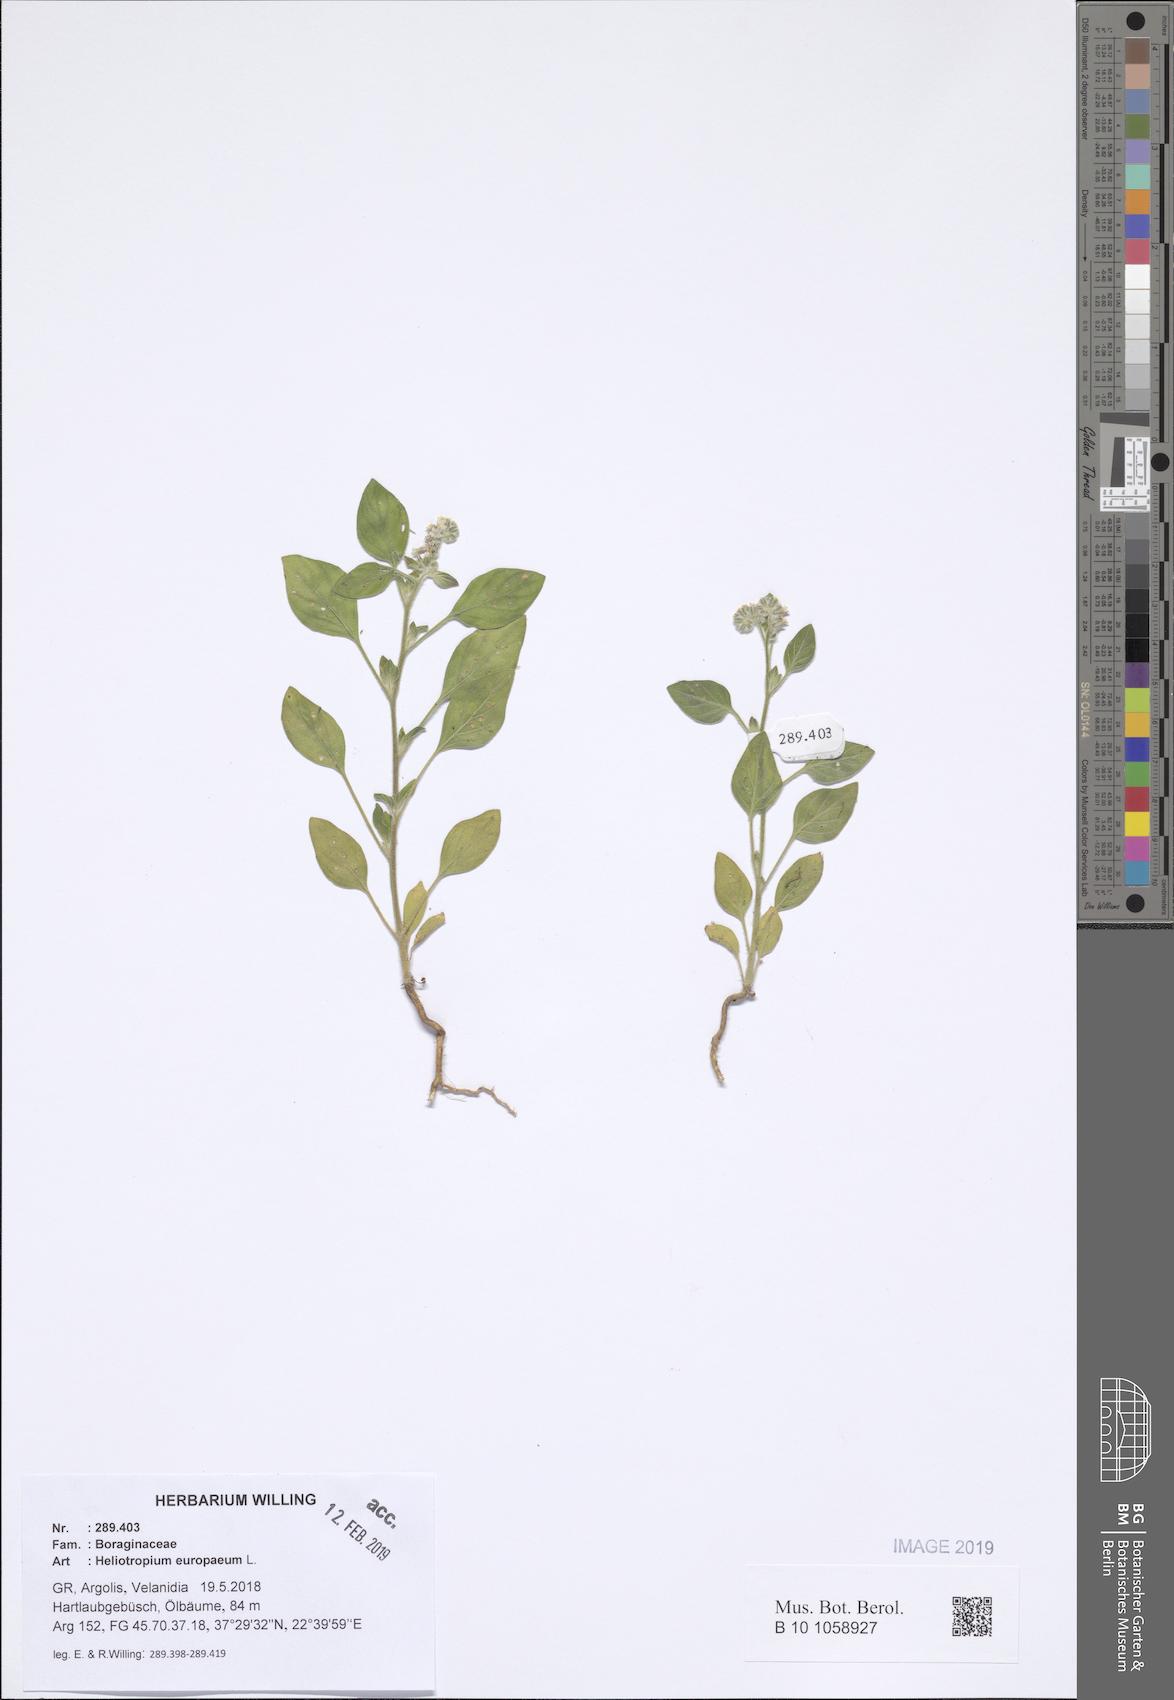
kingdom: Plantae
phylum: Tracheophyta
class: Magnoliopsida
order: Boraginales
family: Heliotropiaceae
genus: Heliotropium
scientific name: Heliotropium europaeum
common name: European heliotrope
